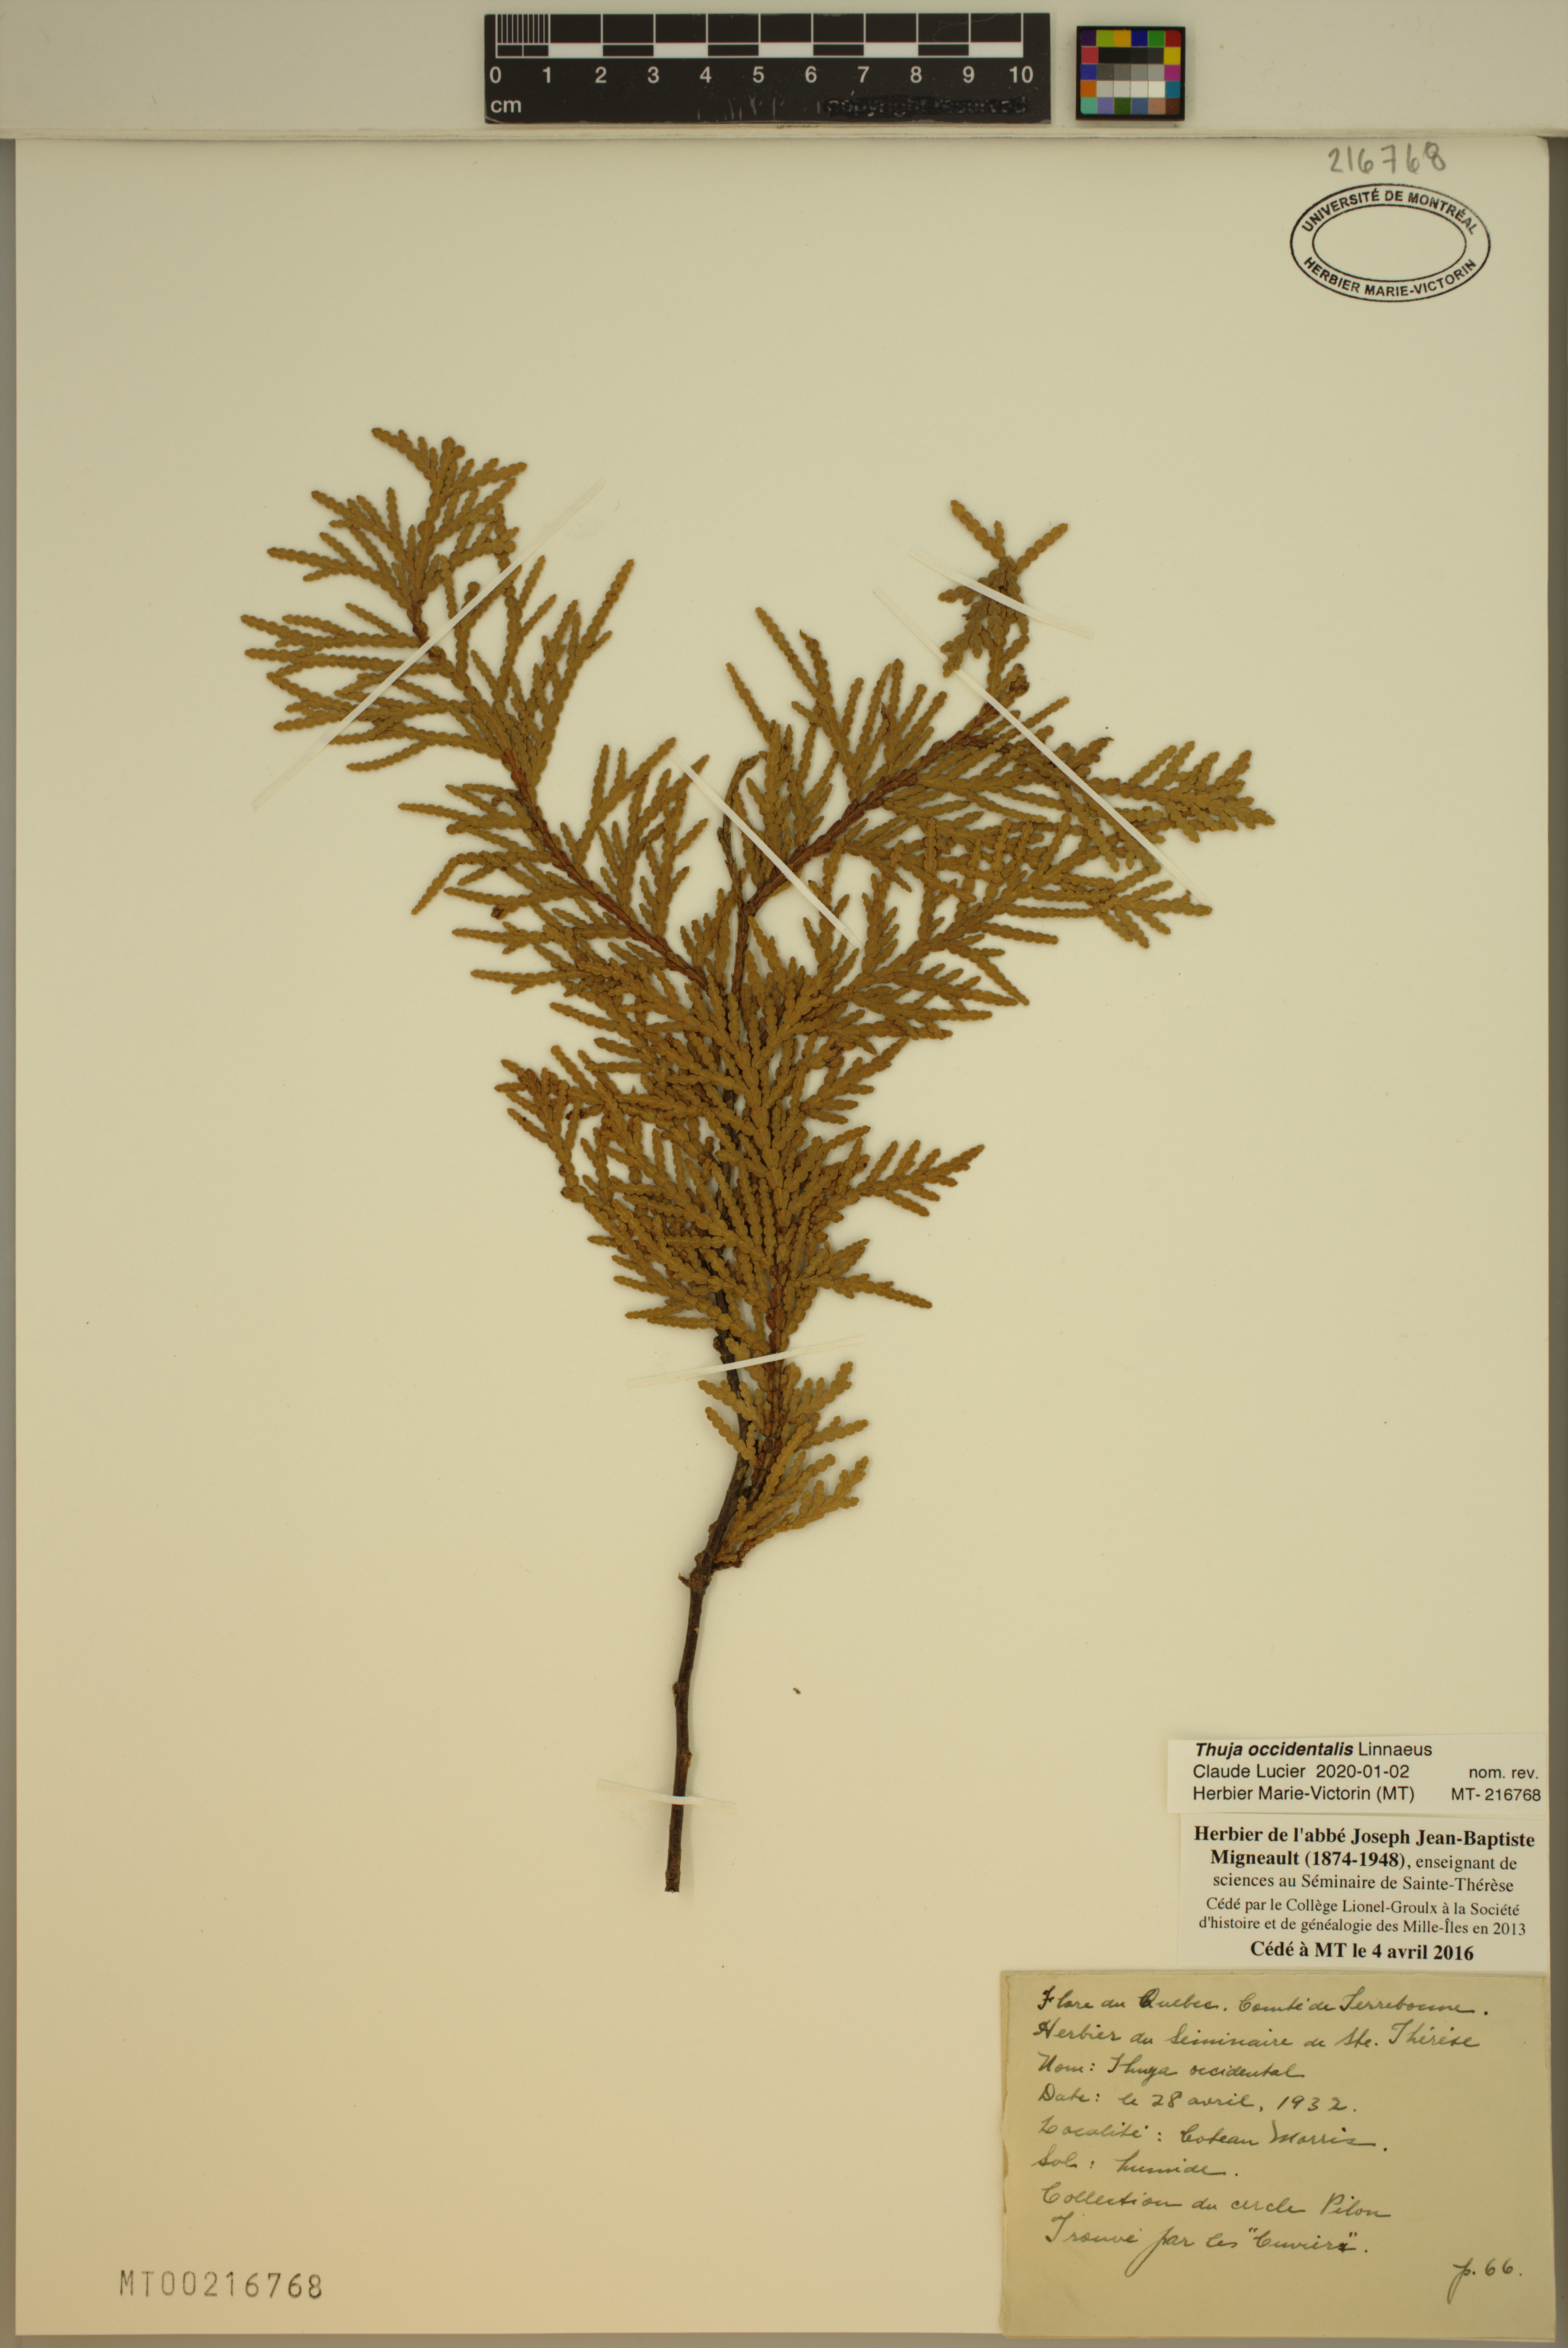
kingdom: Plantae
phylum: Tracheophyta
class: Pinopsida
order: Pinales
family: Cupressaceae
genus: Thuja
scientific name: Thuja occidentalis
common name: Northern white-cedar
